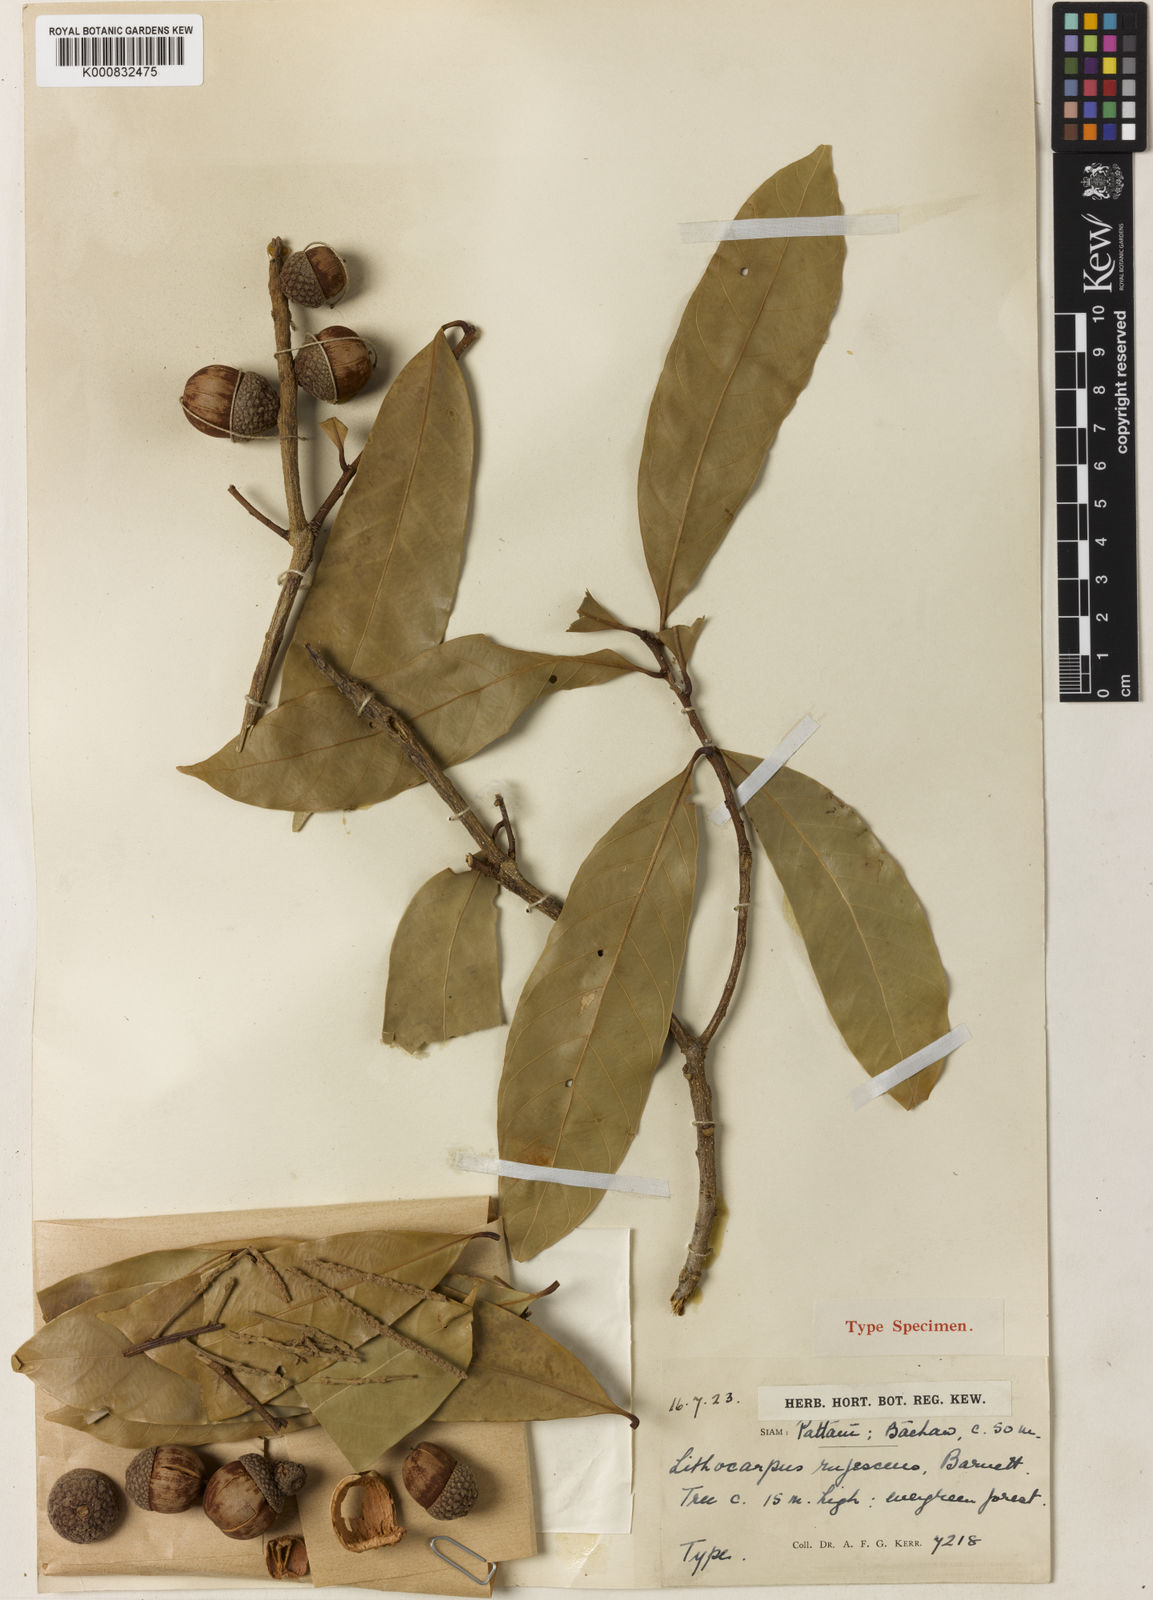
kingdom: Plantae
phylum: Tracheophyta
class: Magnoliopsida
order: Fagales
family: Fagaceae
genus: Lithocarpus
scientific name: Lithocarpus rufescens
